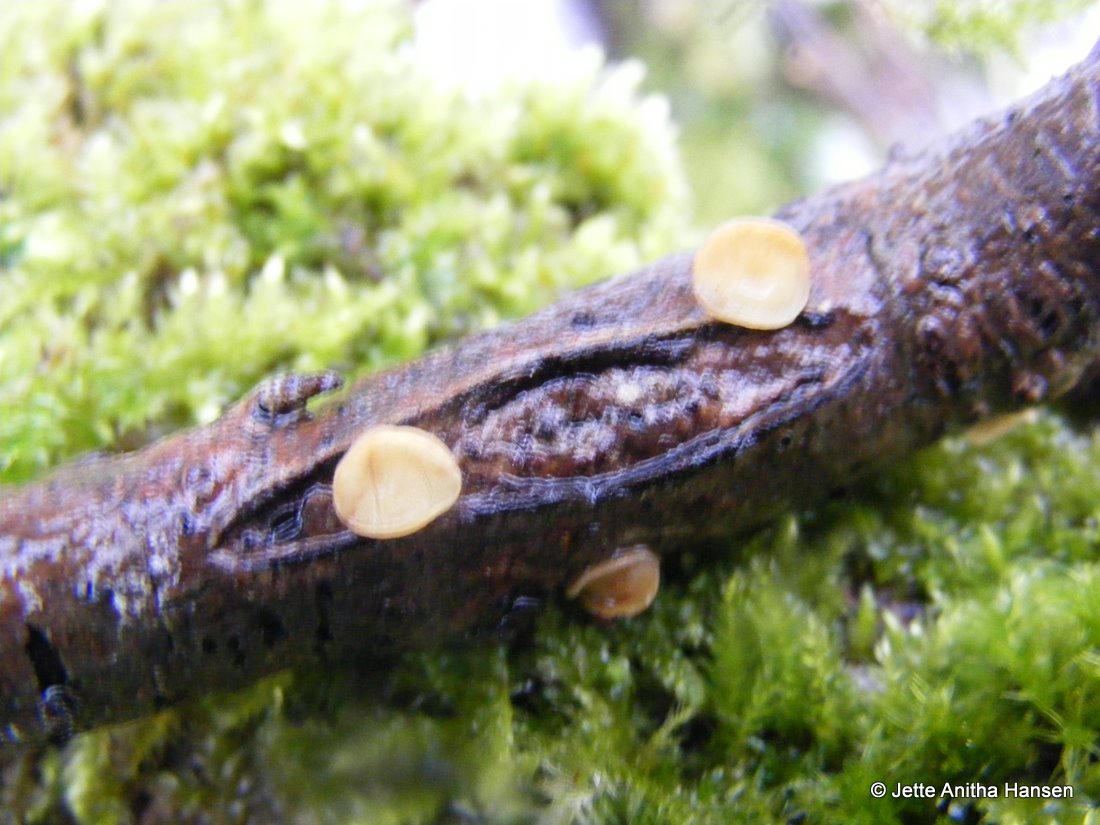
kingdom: Fungi
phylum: Ascomycota
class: Leotiomycetes
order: Helotiales
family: Helotiaceae
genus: Hymenoscyphus
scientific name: Hymenoscyphus calyculus
